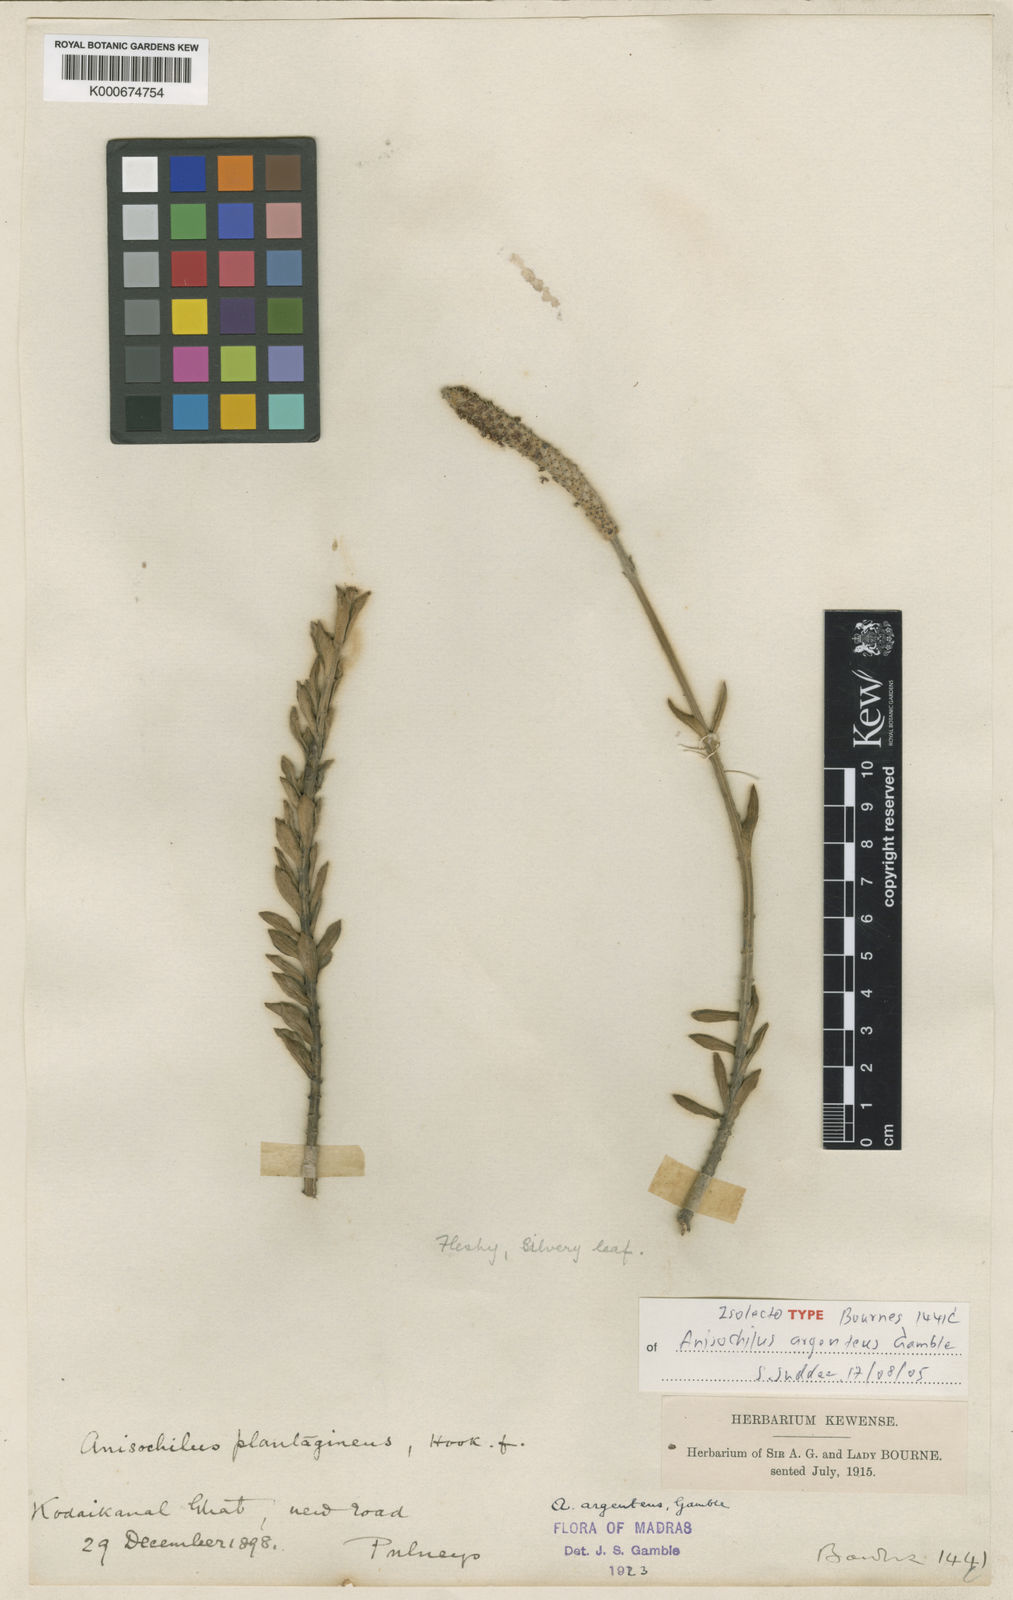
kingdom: Plantae
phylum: Tracheophyta
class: Magnoliopsida
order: Lamiales
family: Lamiaceae
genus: Coleus
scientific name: Coleus argenteus
